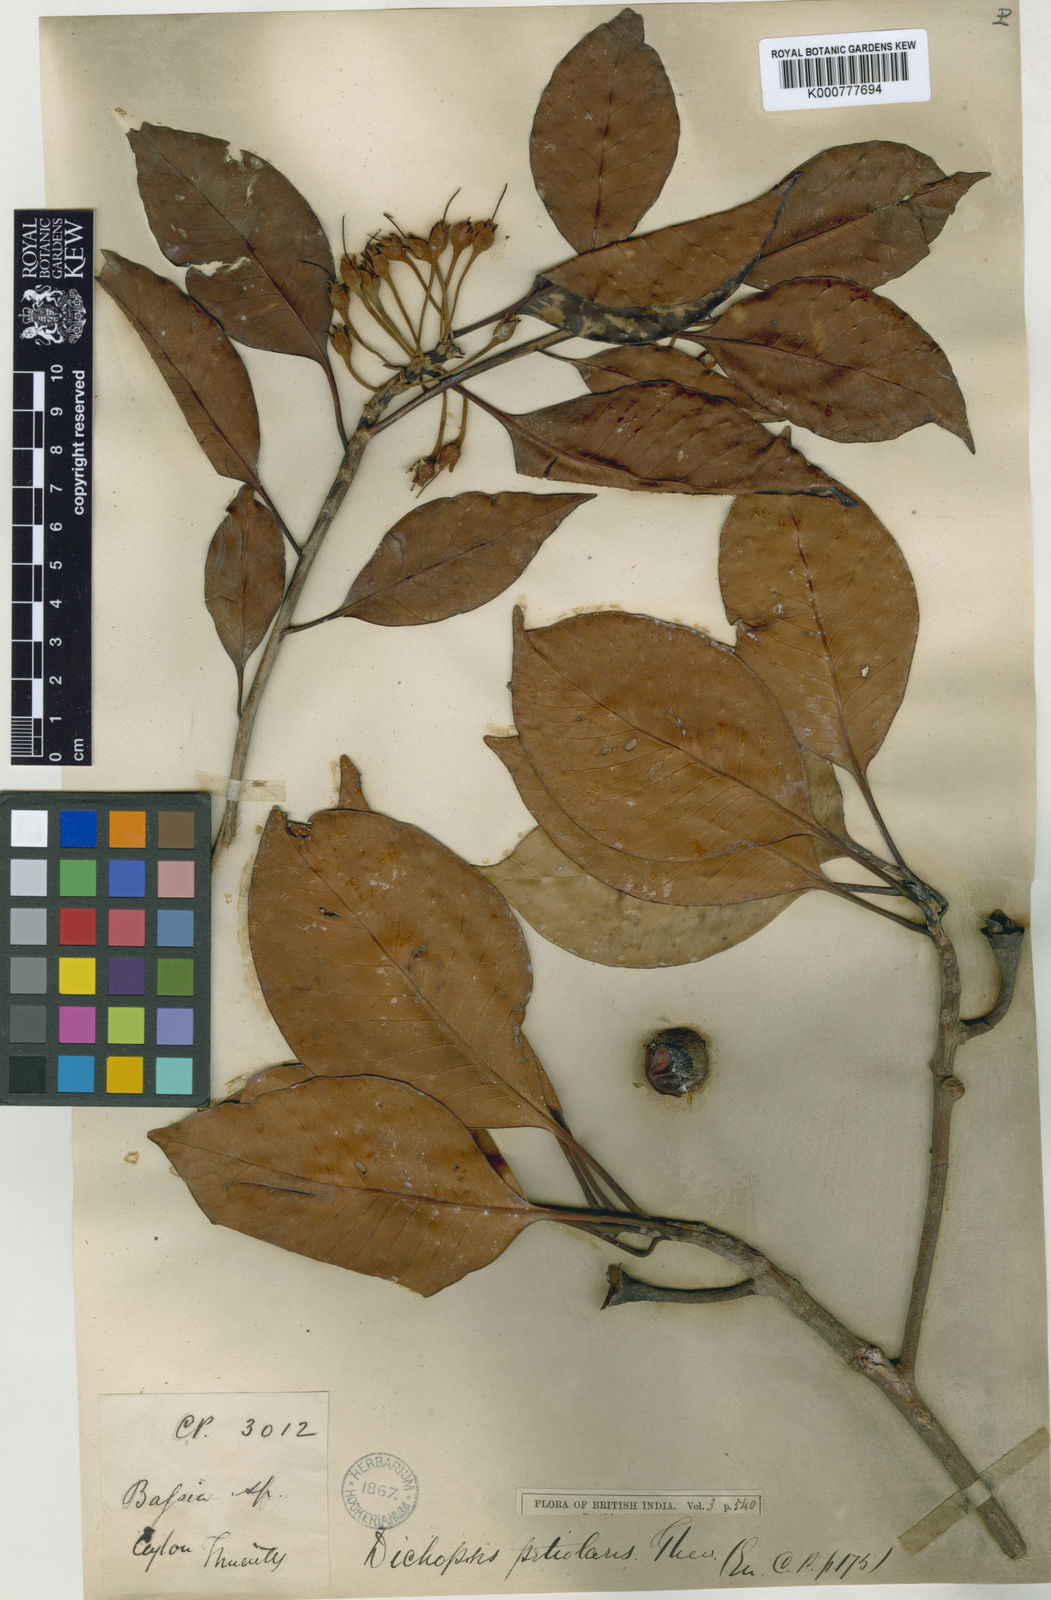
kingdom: Plantae
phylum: Tracheophyta
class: Magnoliopsida
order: Ericales
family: Sapotaceae
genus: Palaquium
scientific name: Palaquium petiolare
